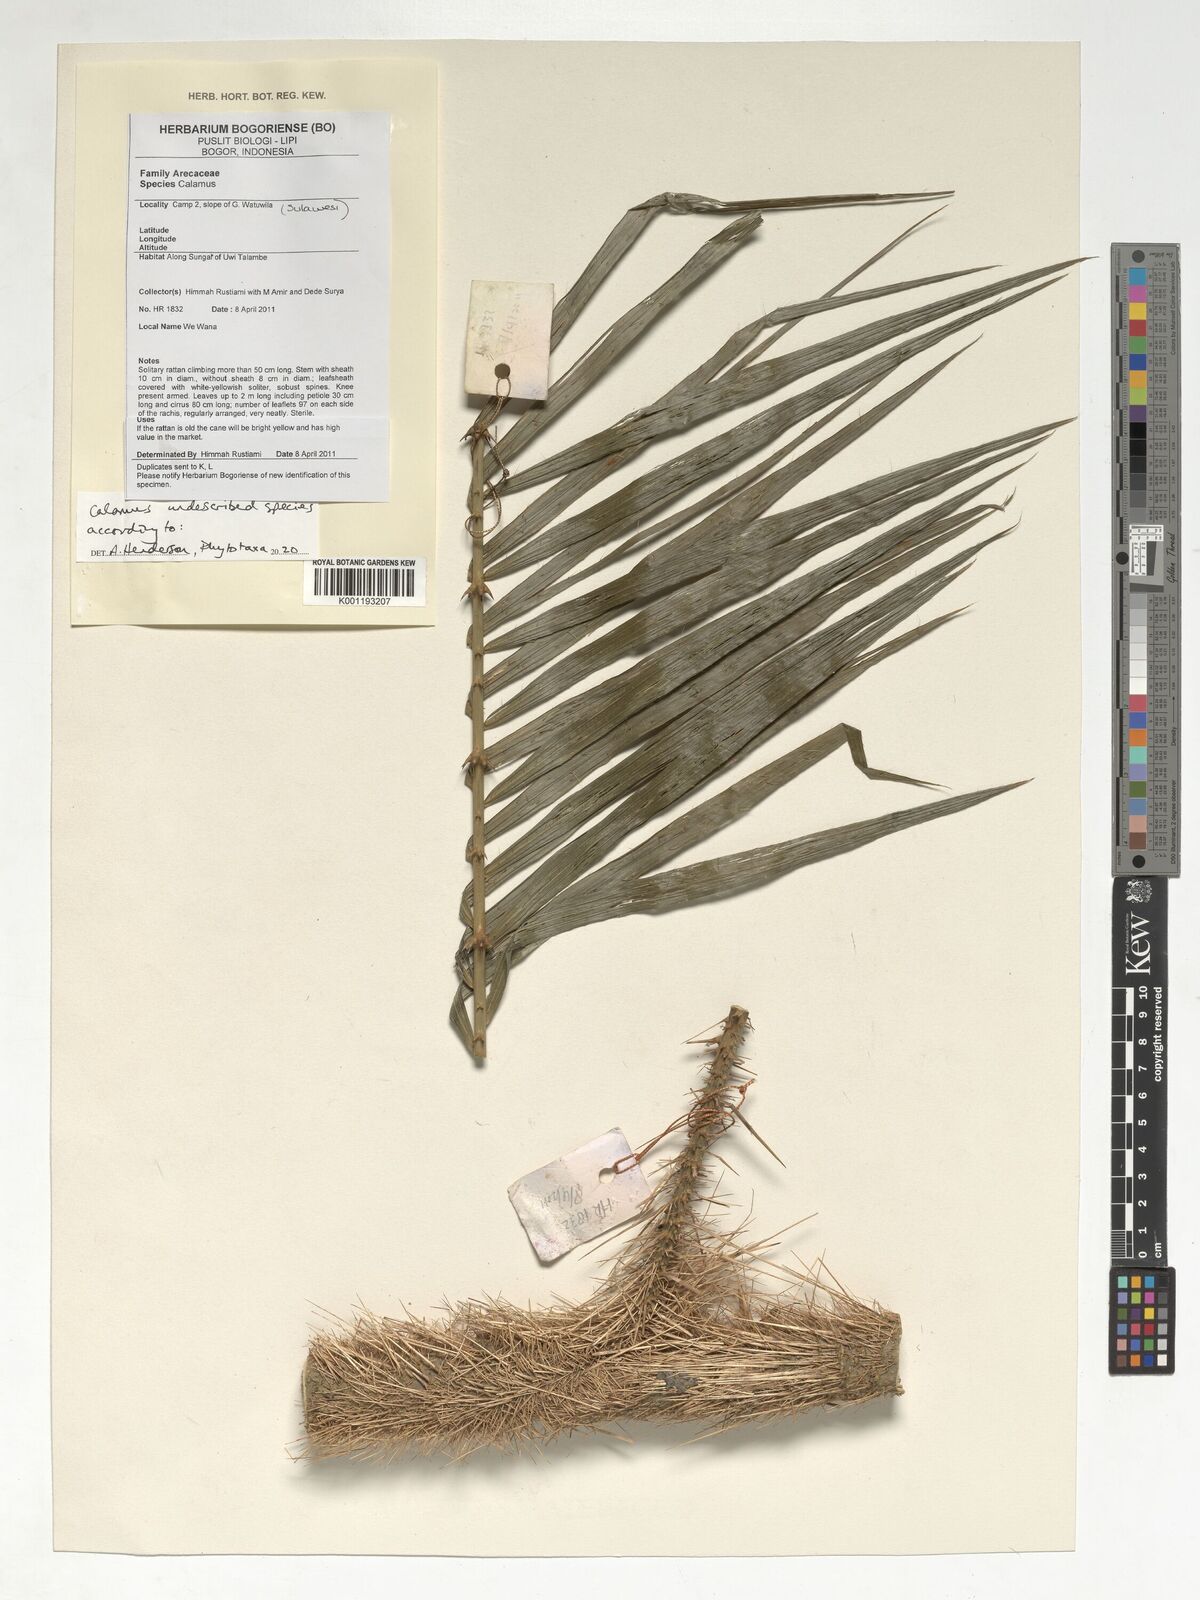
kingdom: Plantae
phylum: Tracheophyta
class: Liliopsida
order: Arecales
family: Arecaceae
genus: Calamus
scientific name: Calamus
